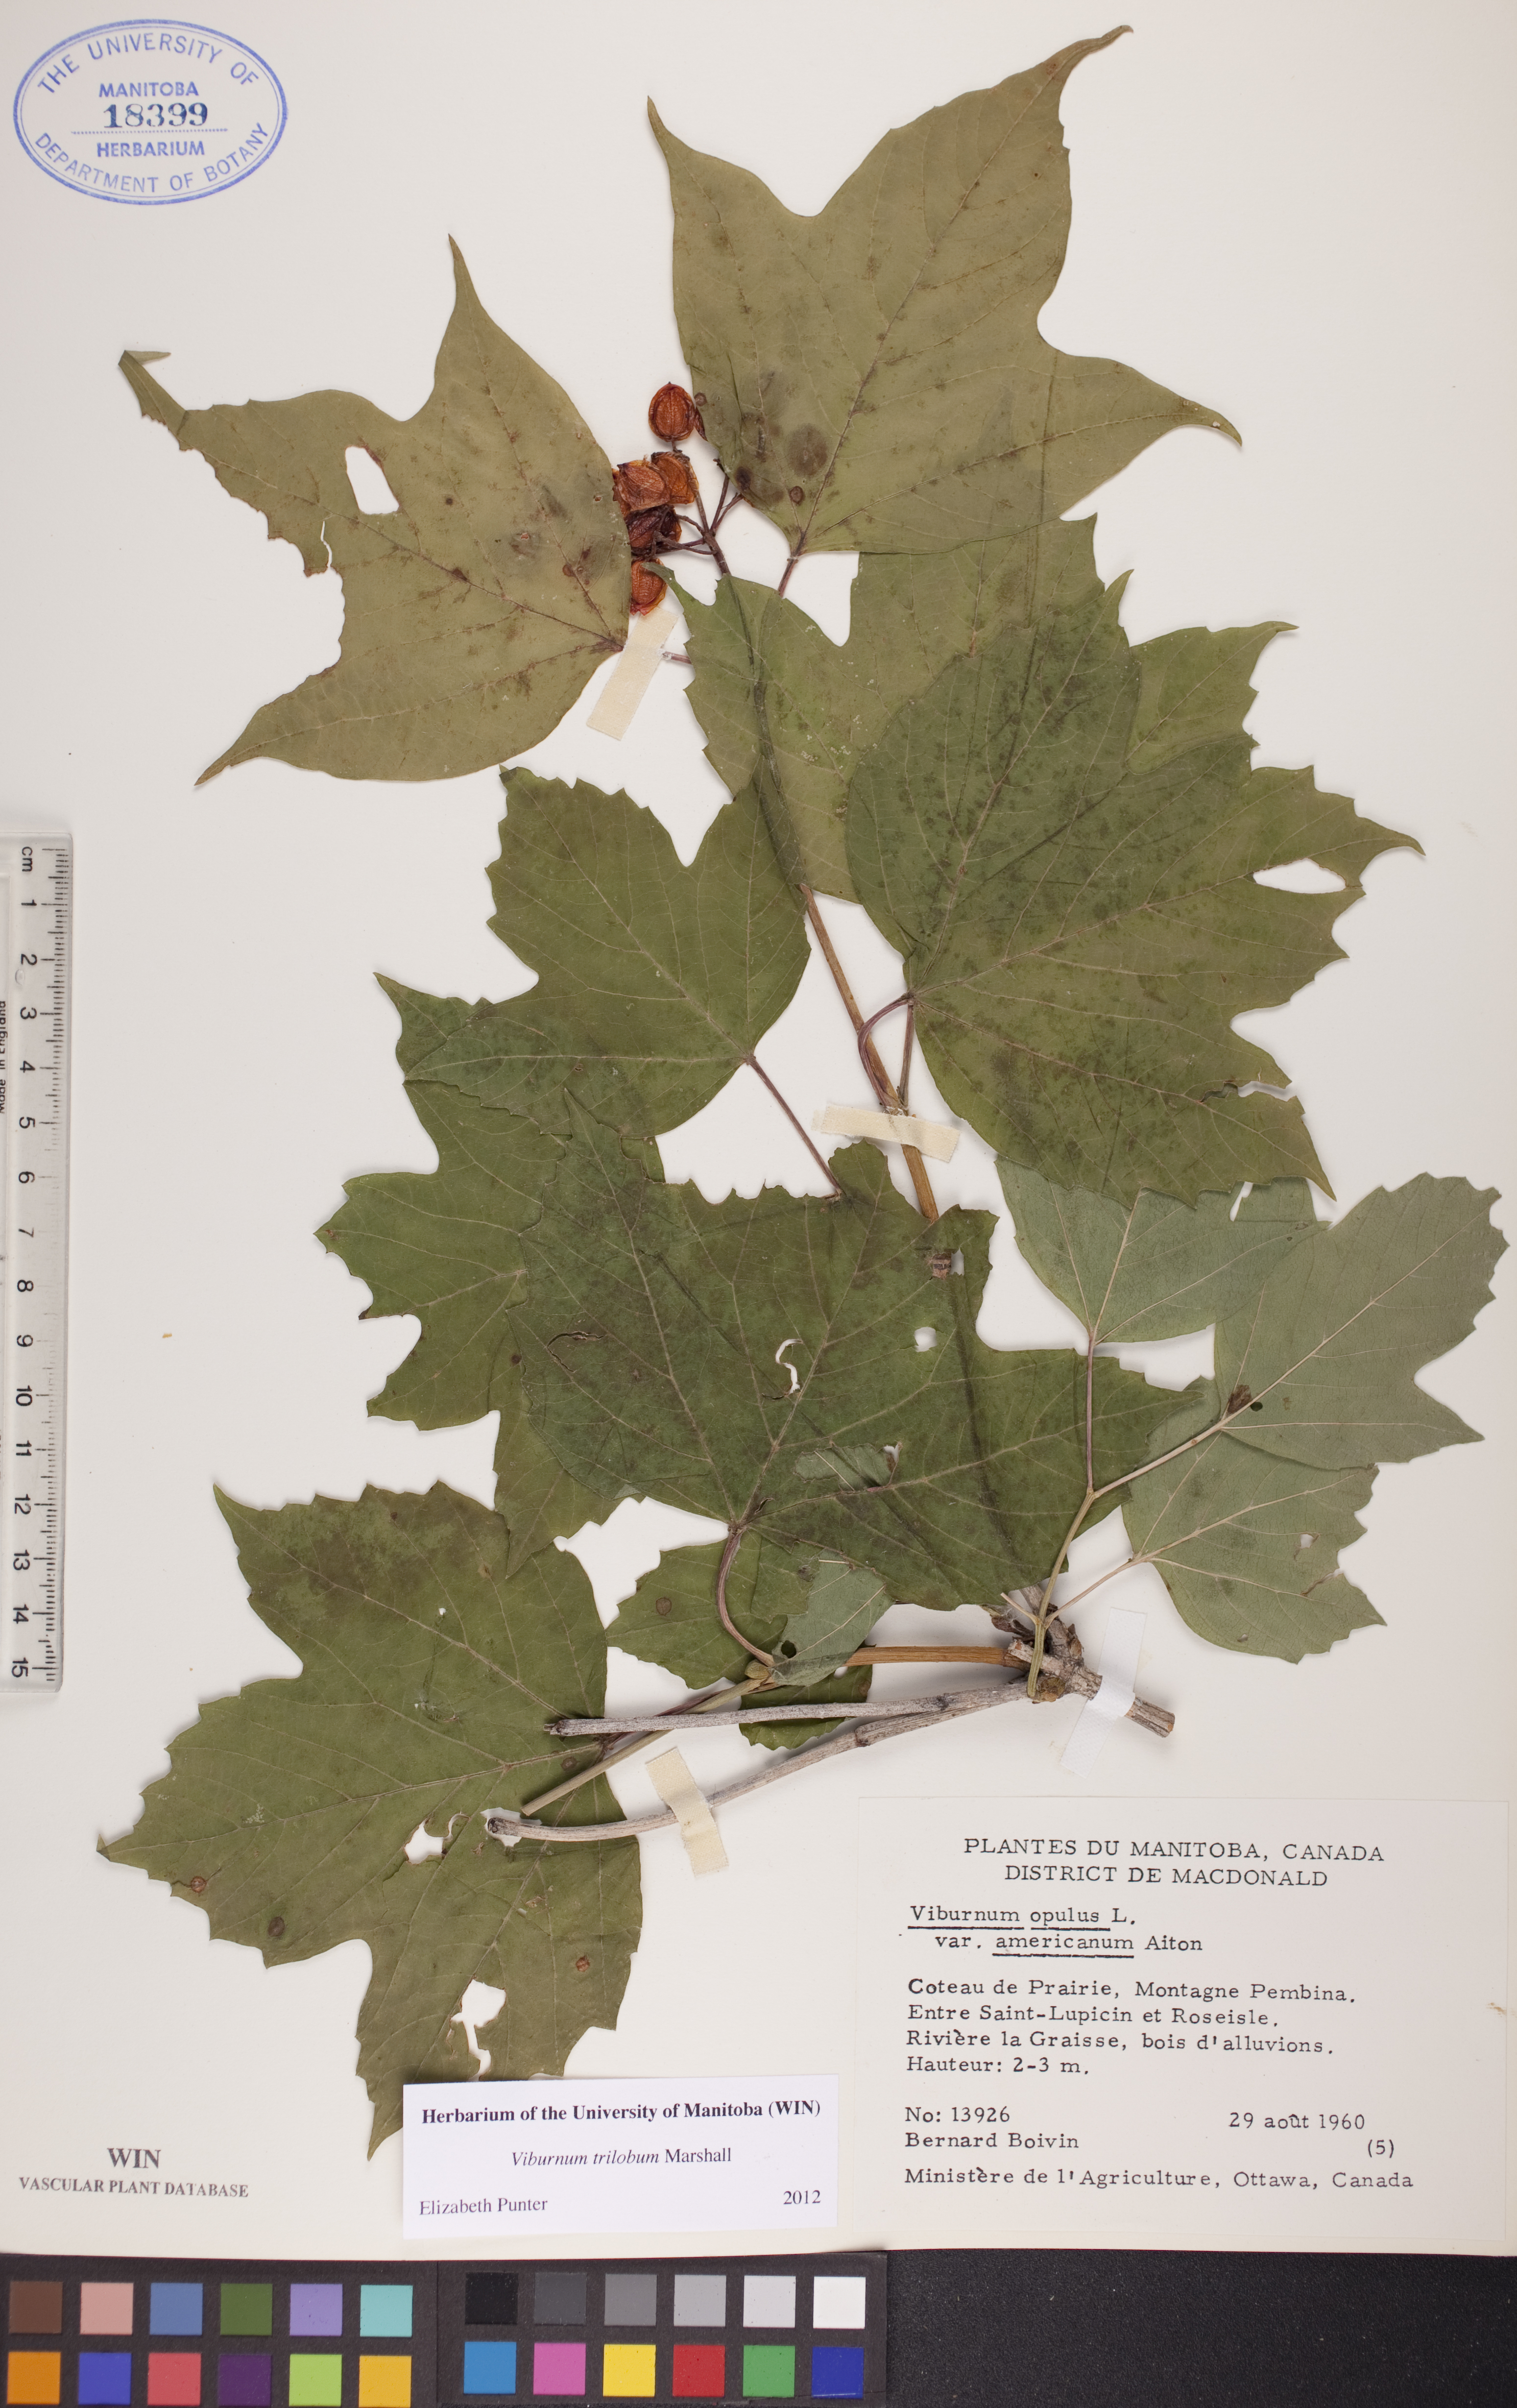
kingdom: Plantae
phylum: Tracheophyta
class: Magnoliopsida
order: Dipsacales
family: Viburnaceae
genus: Viburnum
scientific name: Viburnum trilobum
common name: American cranberrybush
